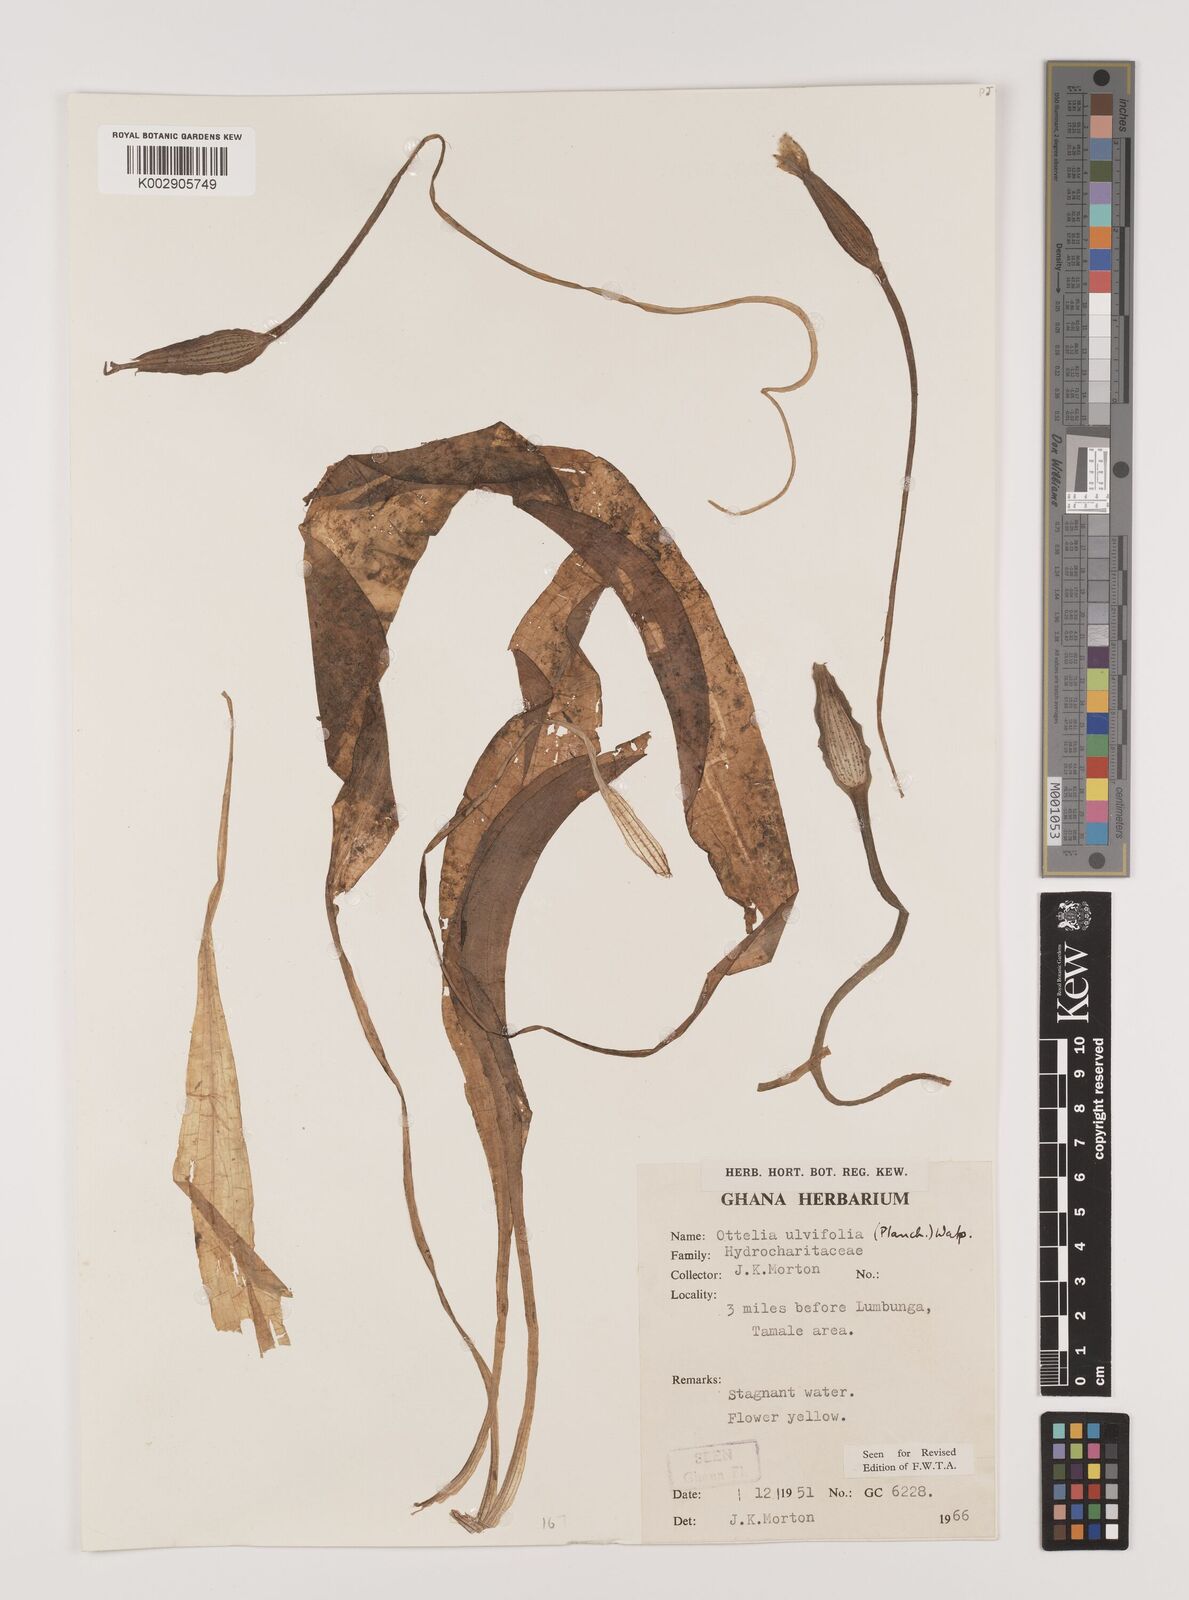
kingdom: Plantae
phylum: Tracheophyta
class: Liliopsida
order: Alismatales
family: Hydrocharitaceae
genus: Ottelia
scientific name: Ottelia ulvifolia
